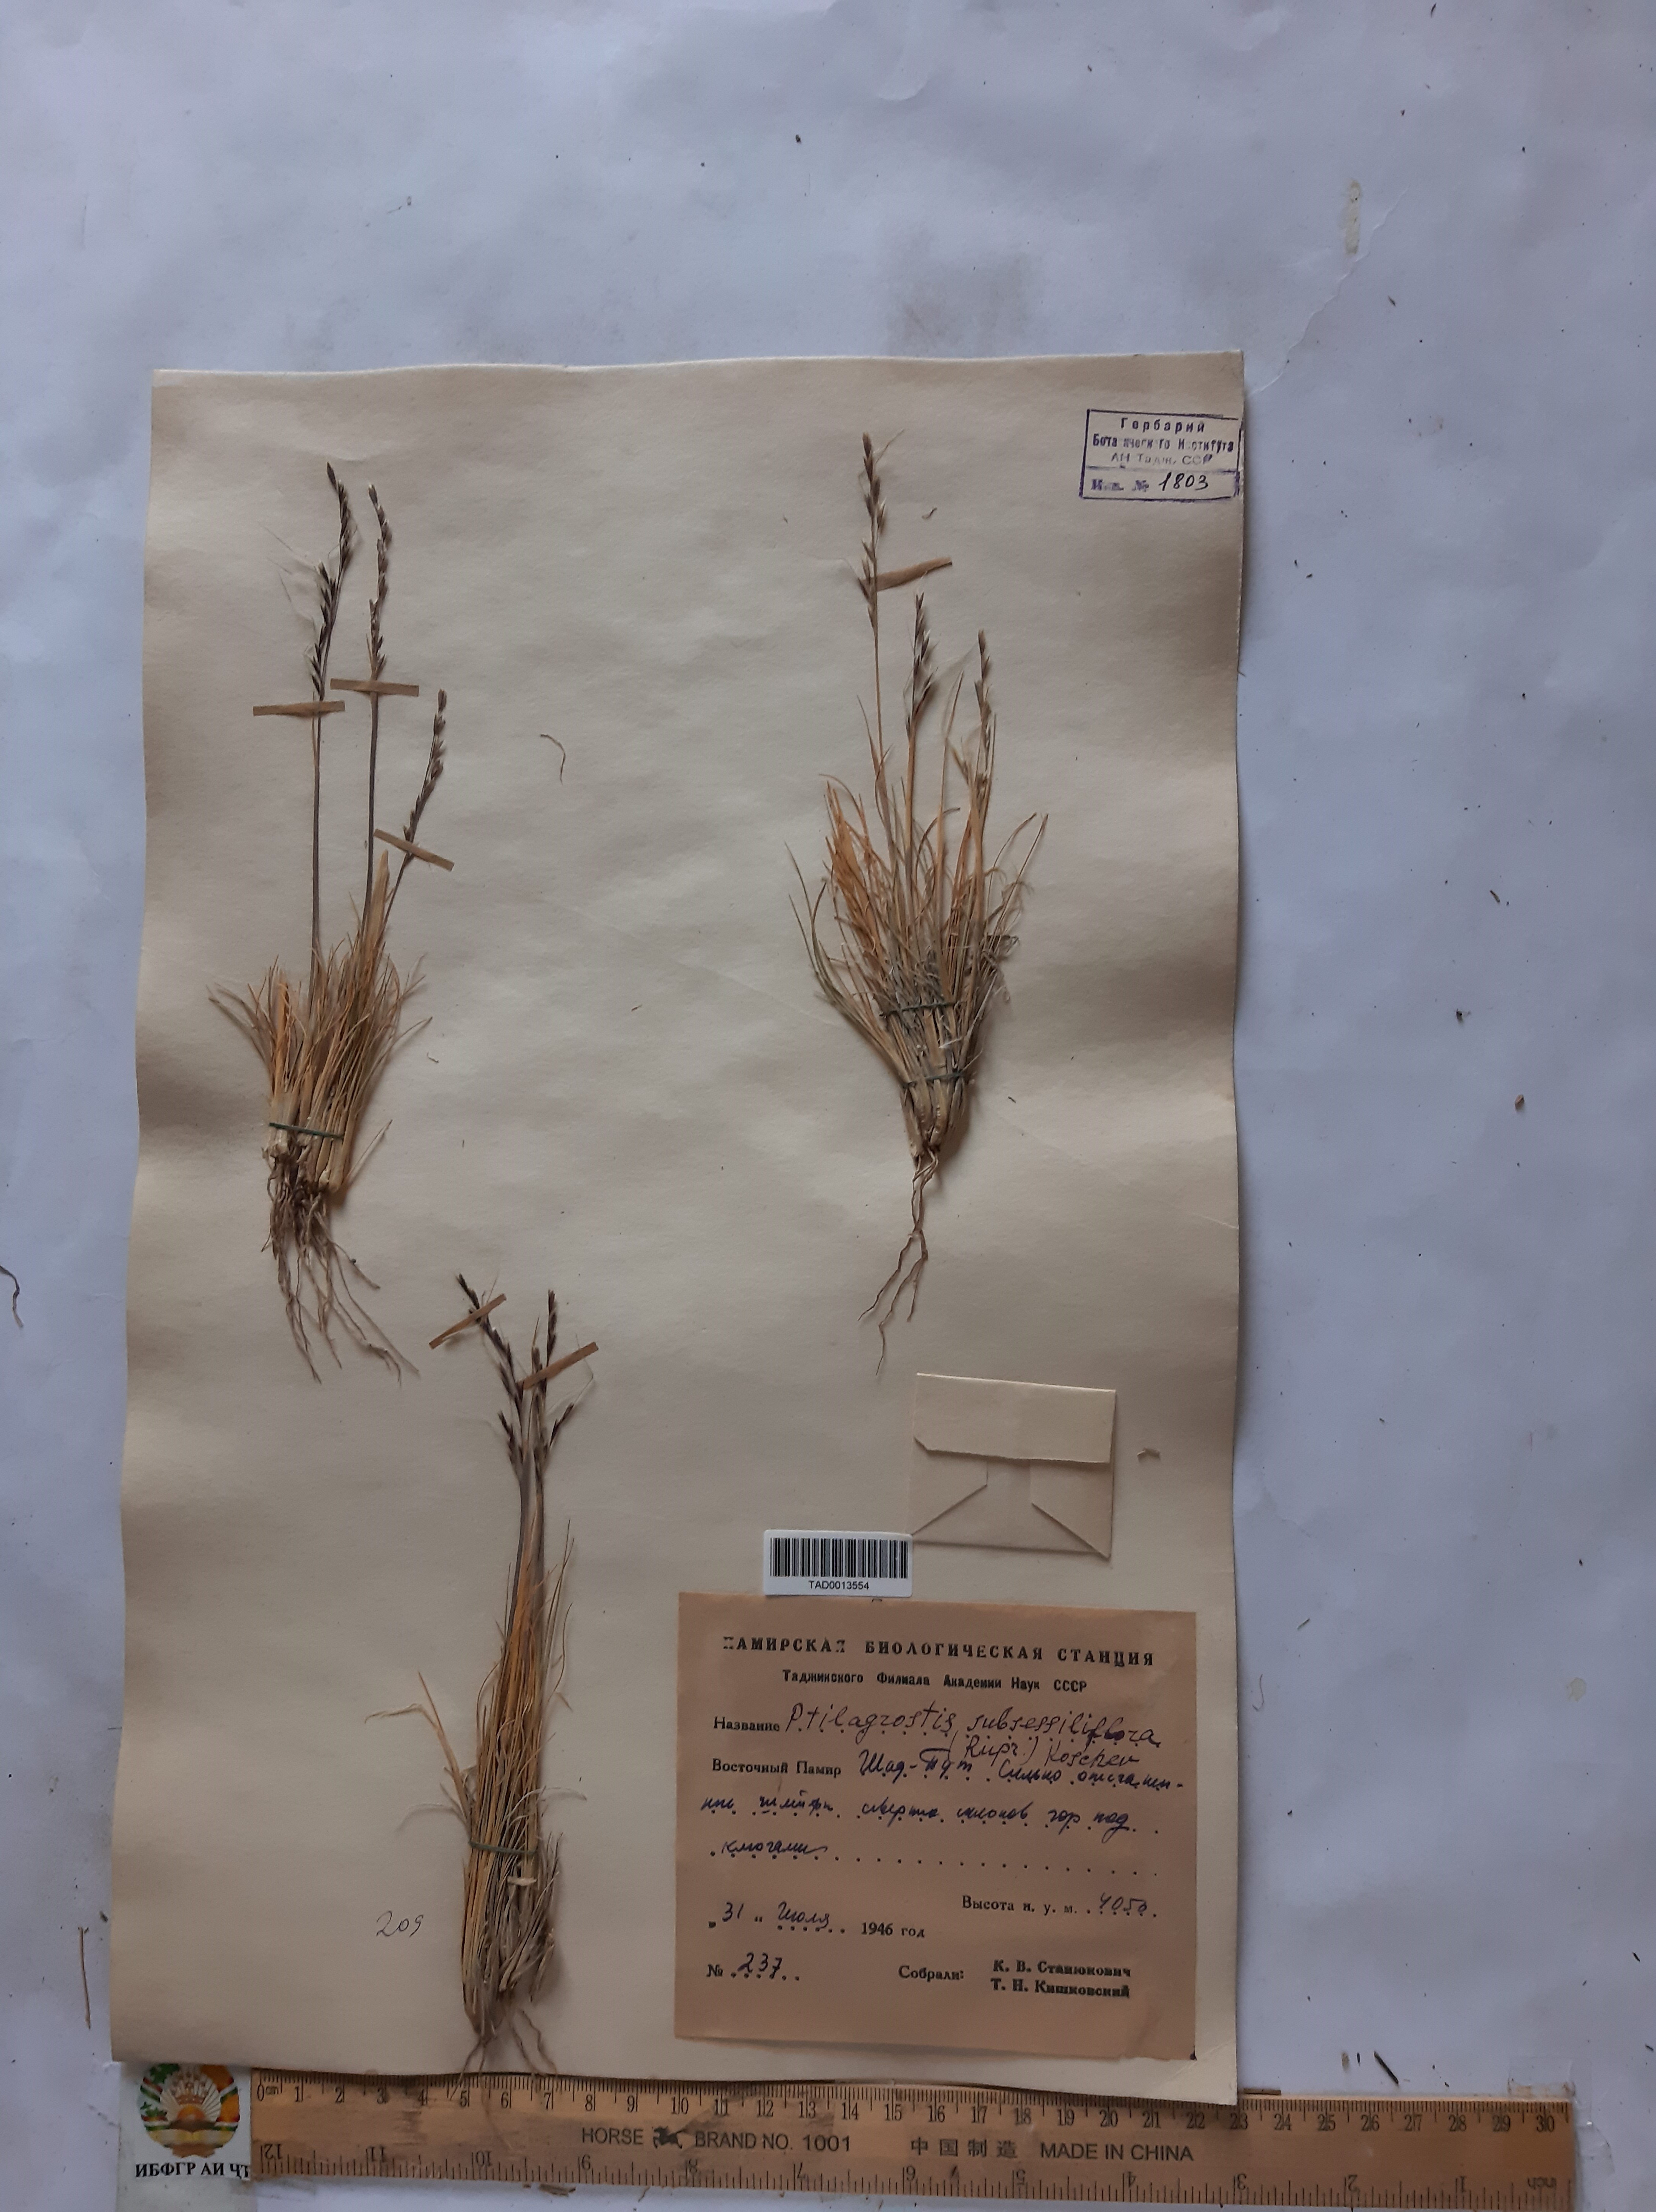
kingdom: Plantae
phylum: Tracheophyta
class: Liliopsida
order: Poales
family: Poaceae
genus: Stipa
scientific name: Stipa subsessiliflora
